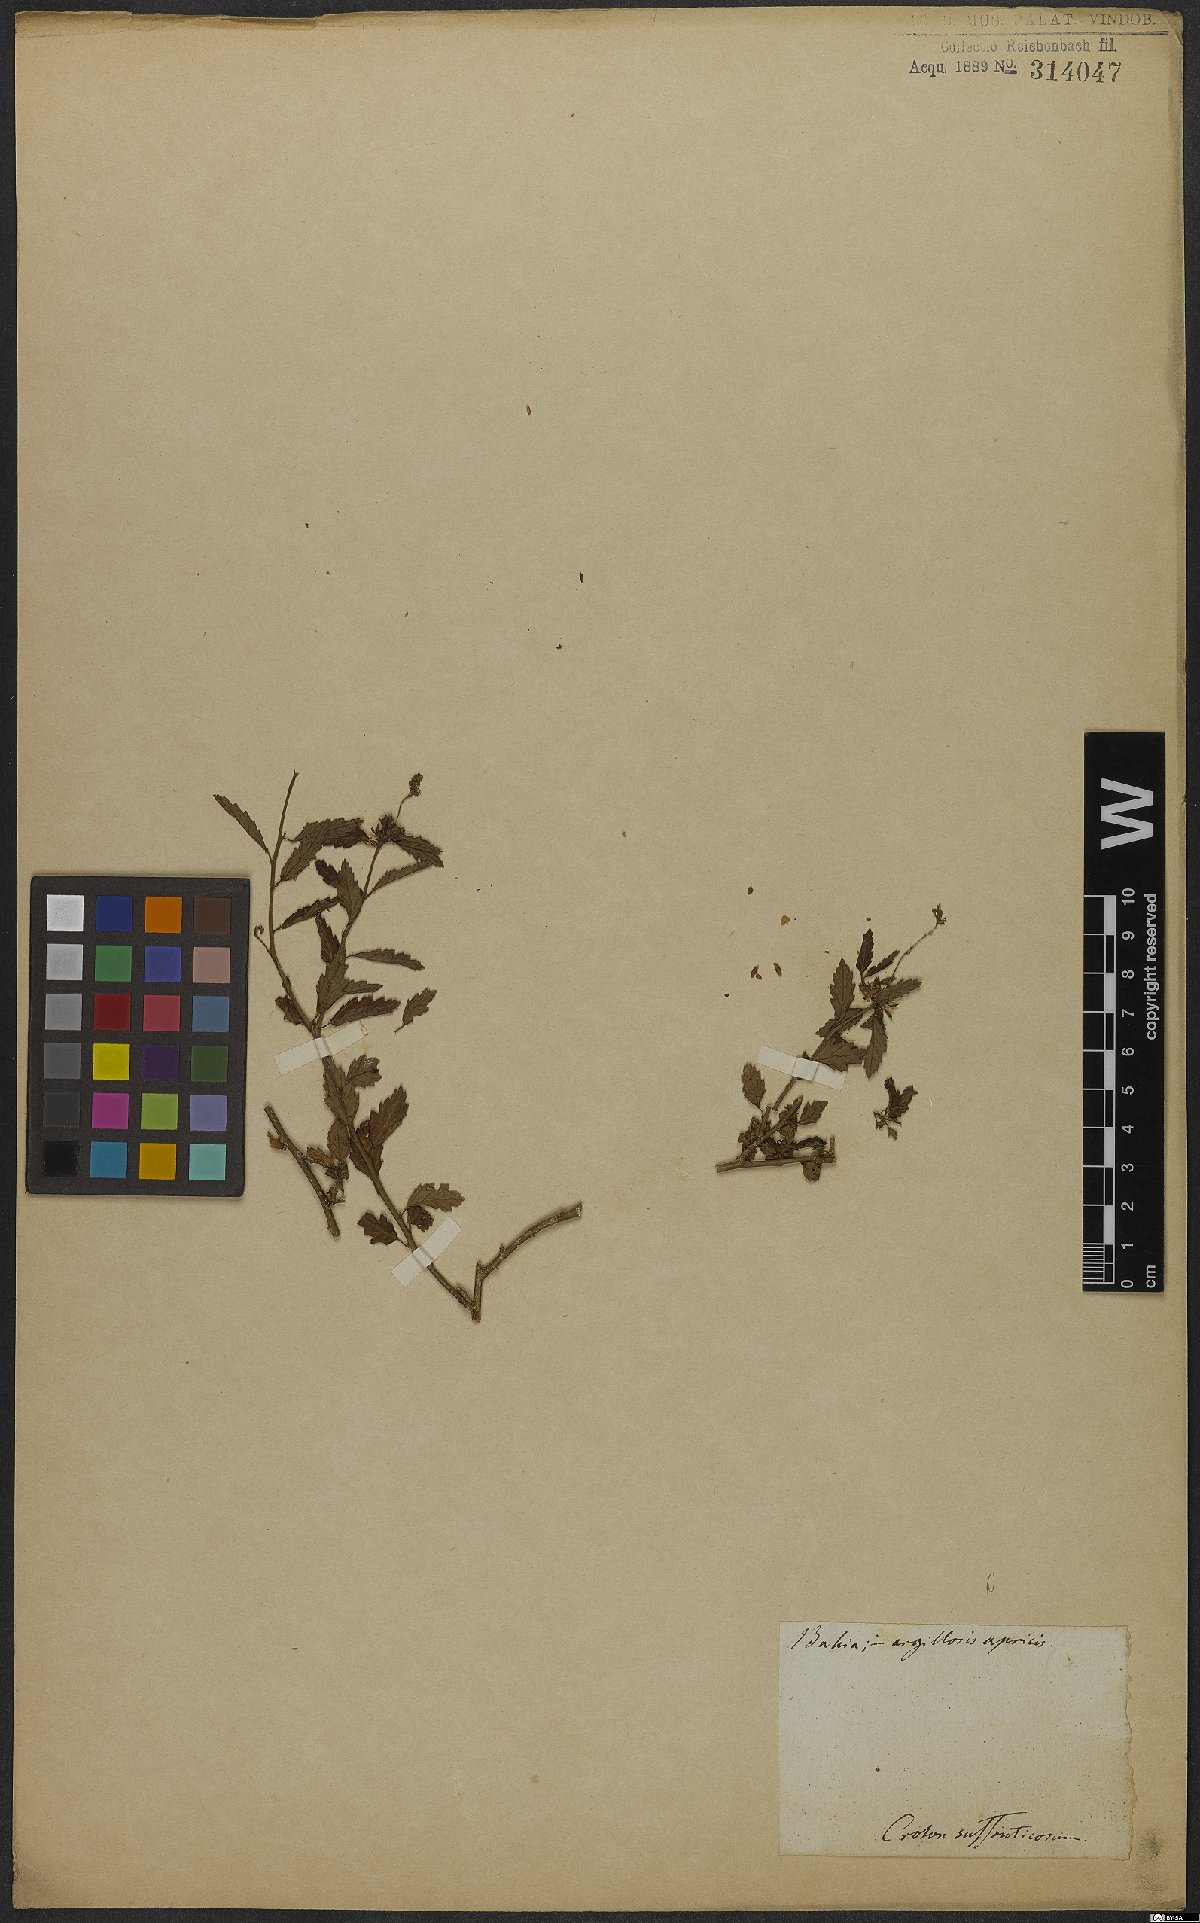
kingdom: Plantae
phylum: Tracheophyta
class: Magnoliopsida
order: Malpighiales
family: Euphorbiaceae
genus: Croton
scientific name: Croton
